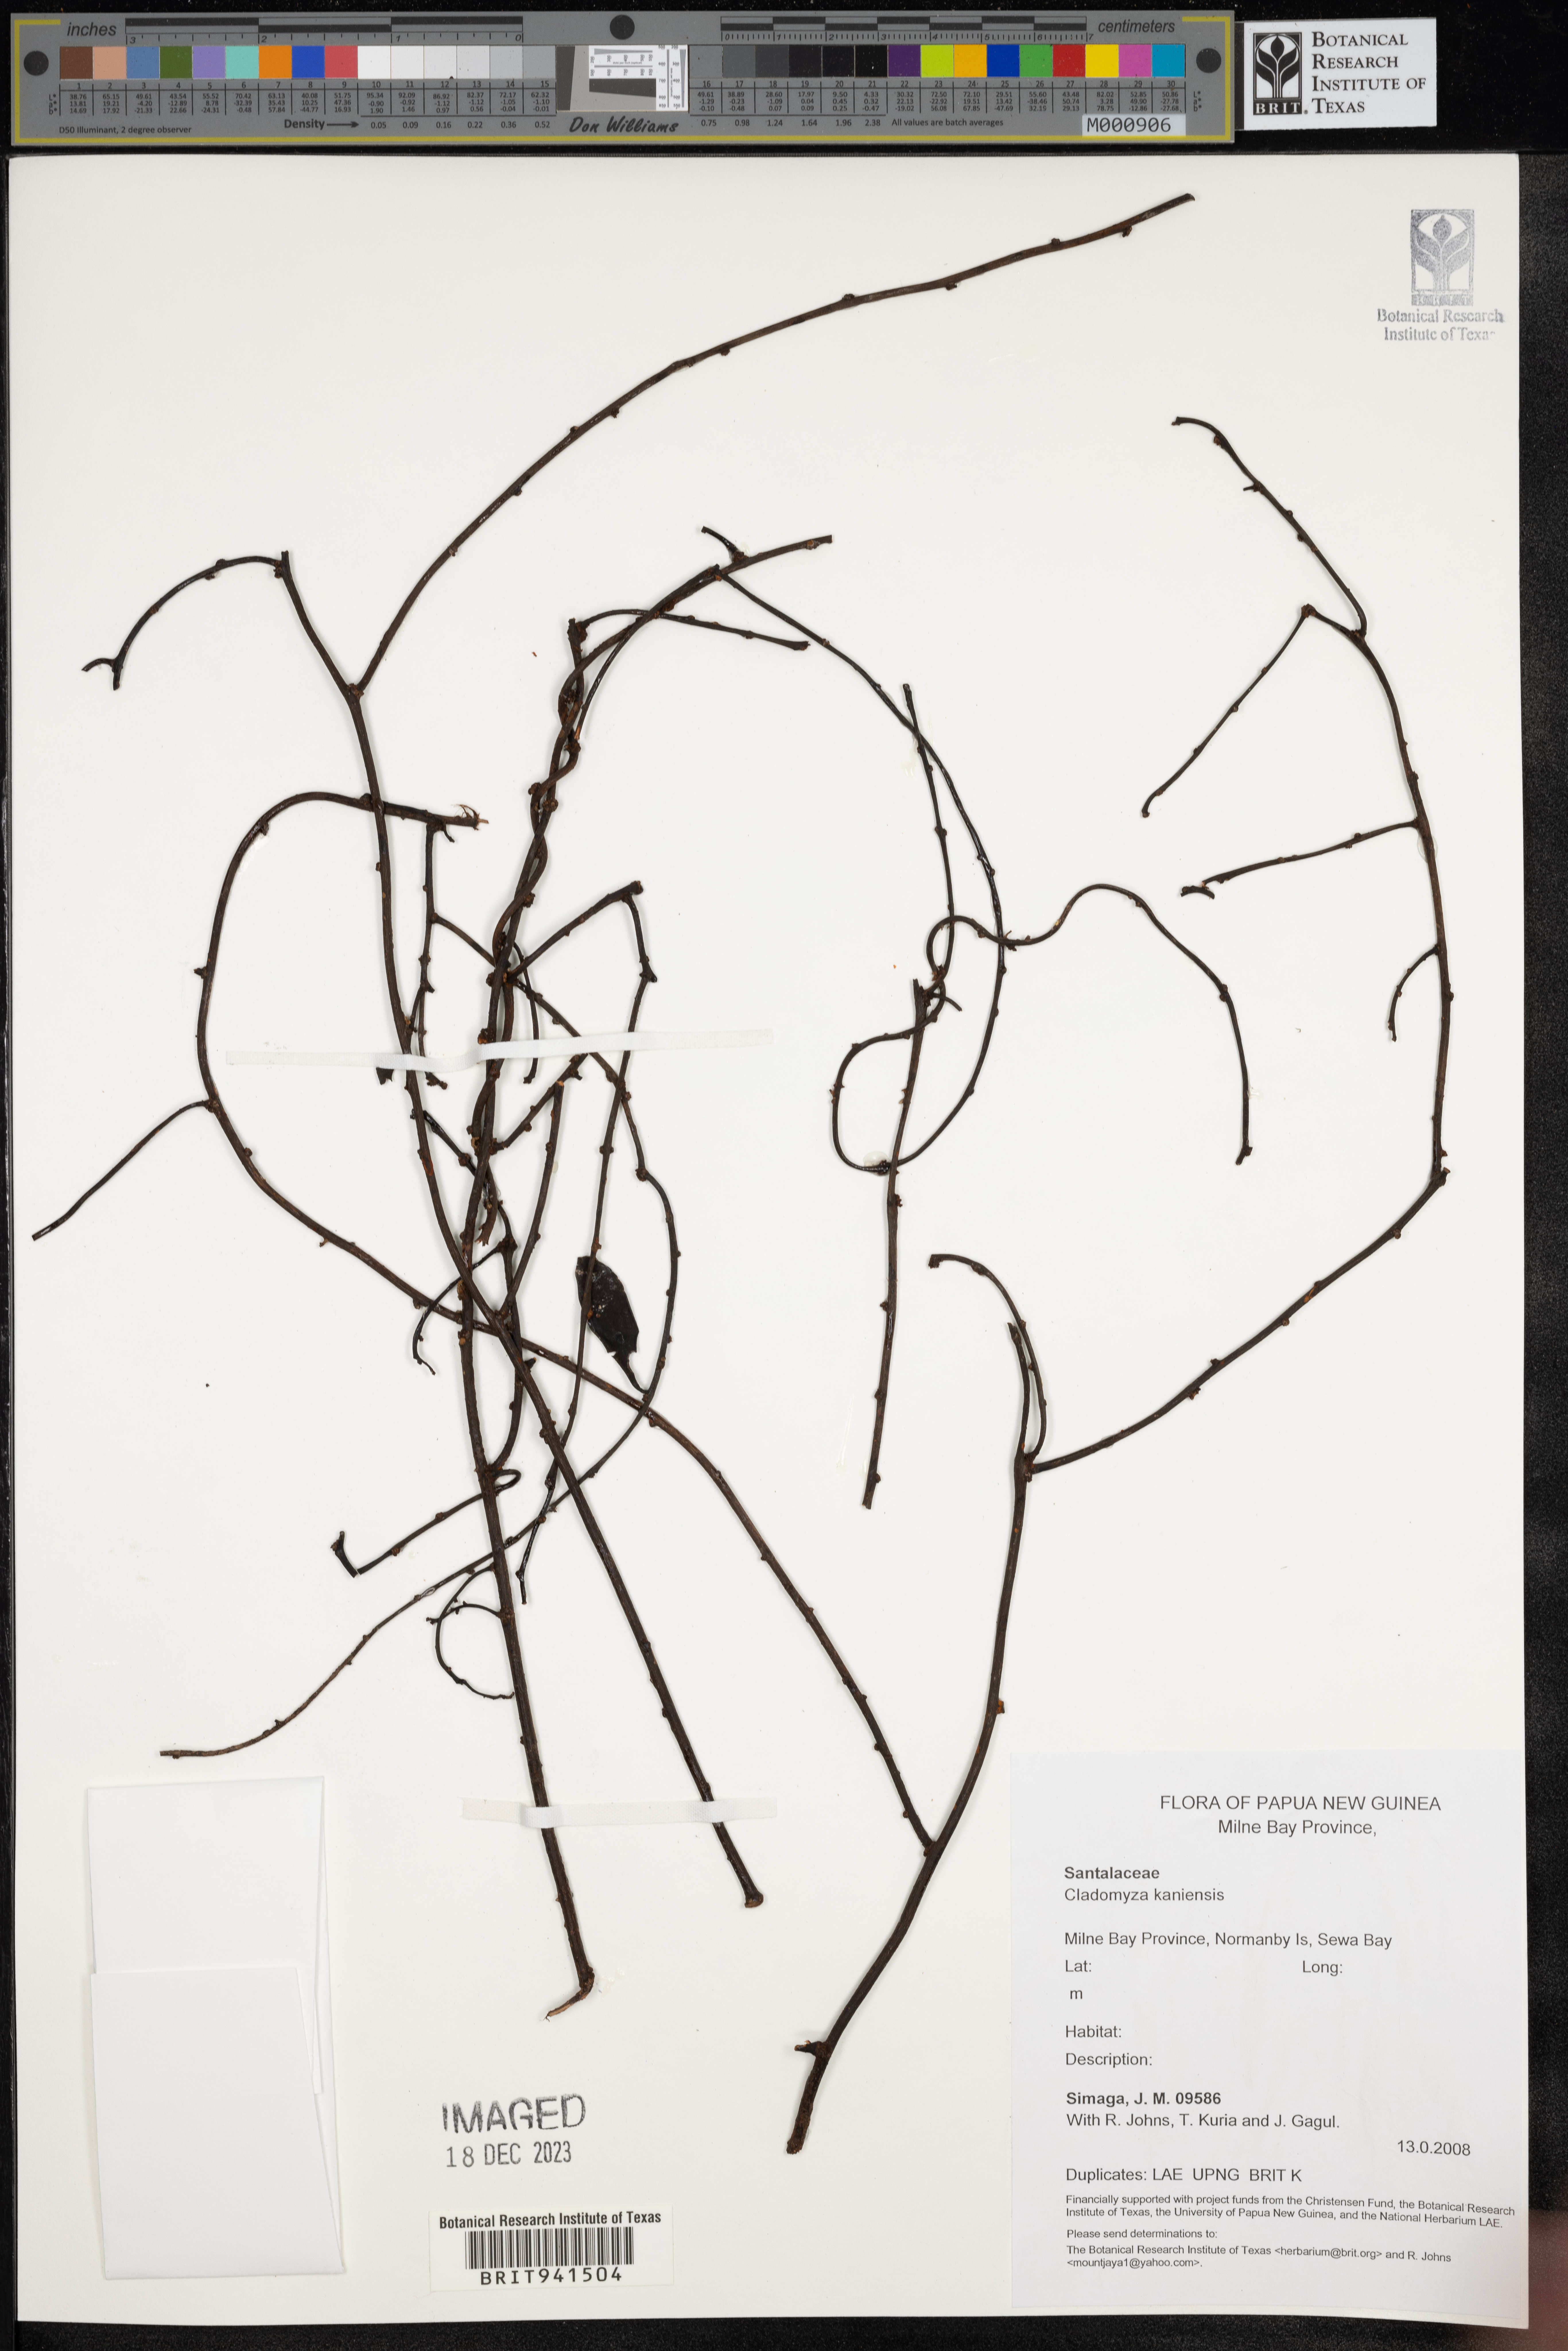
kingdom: Plantae
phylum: Tracheophyta
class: Magnoliopsida
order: Santalales
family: Amphorogynaceae
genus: Cladomyza
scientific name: Cladomyza
